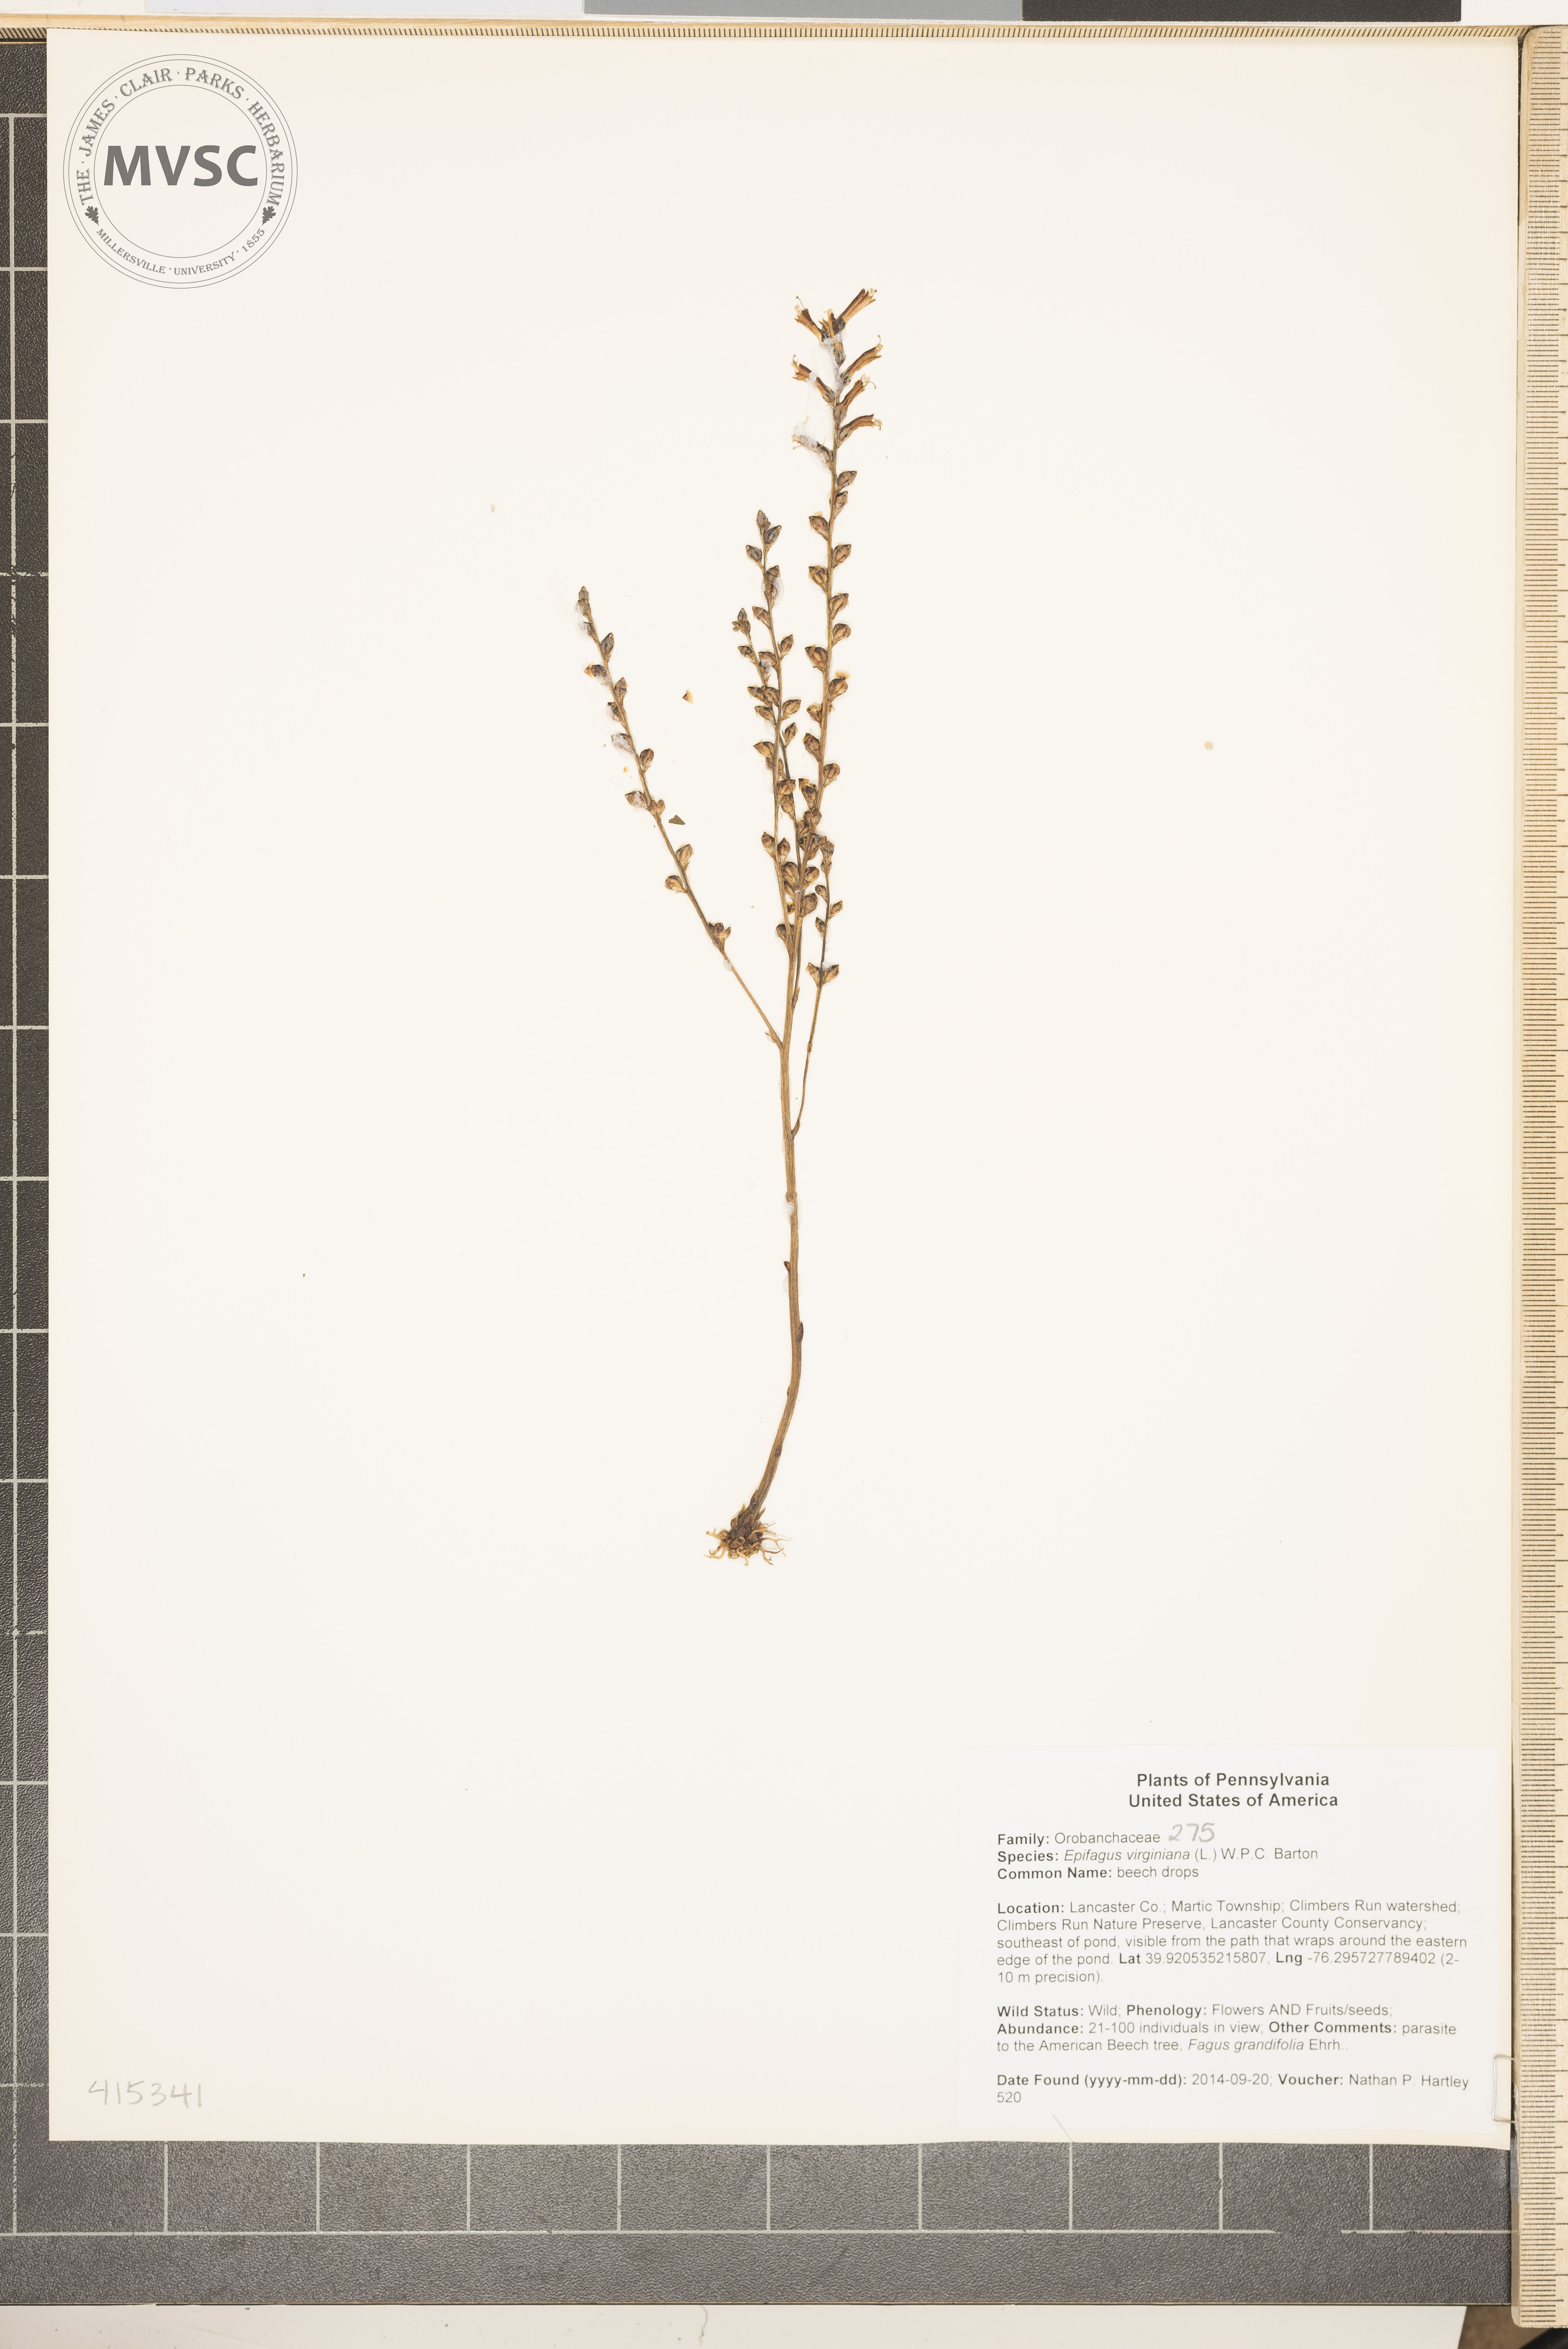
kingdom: Plantae
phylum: Tracheophyta
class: Magnoliopsida
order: Lamiales
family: Orobanchaceae
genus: Epifagus
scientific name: Epifagus virginiana
